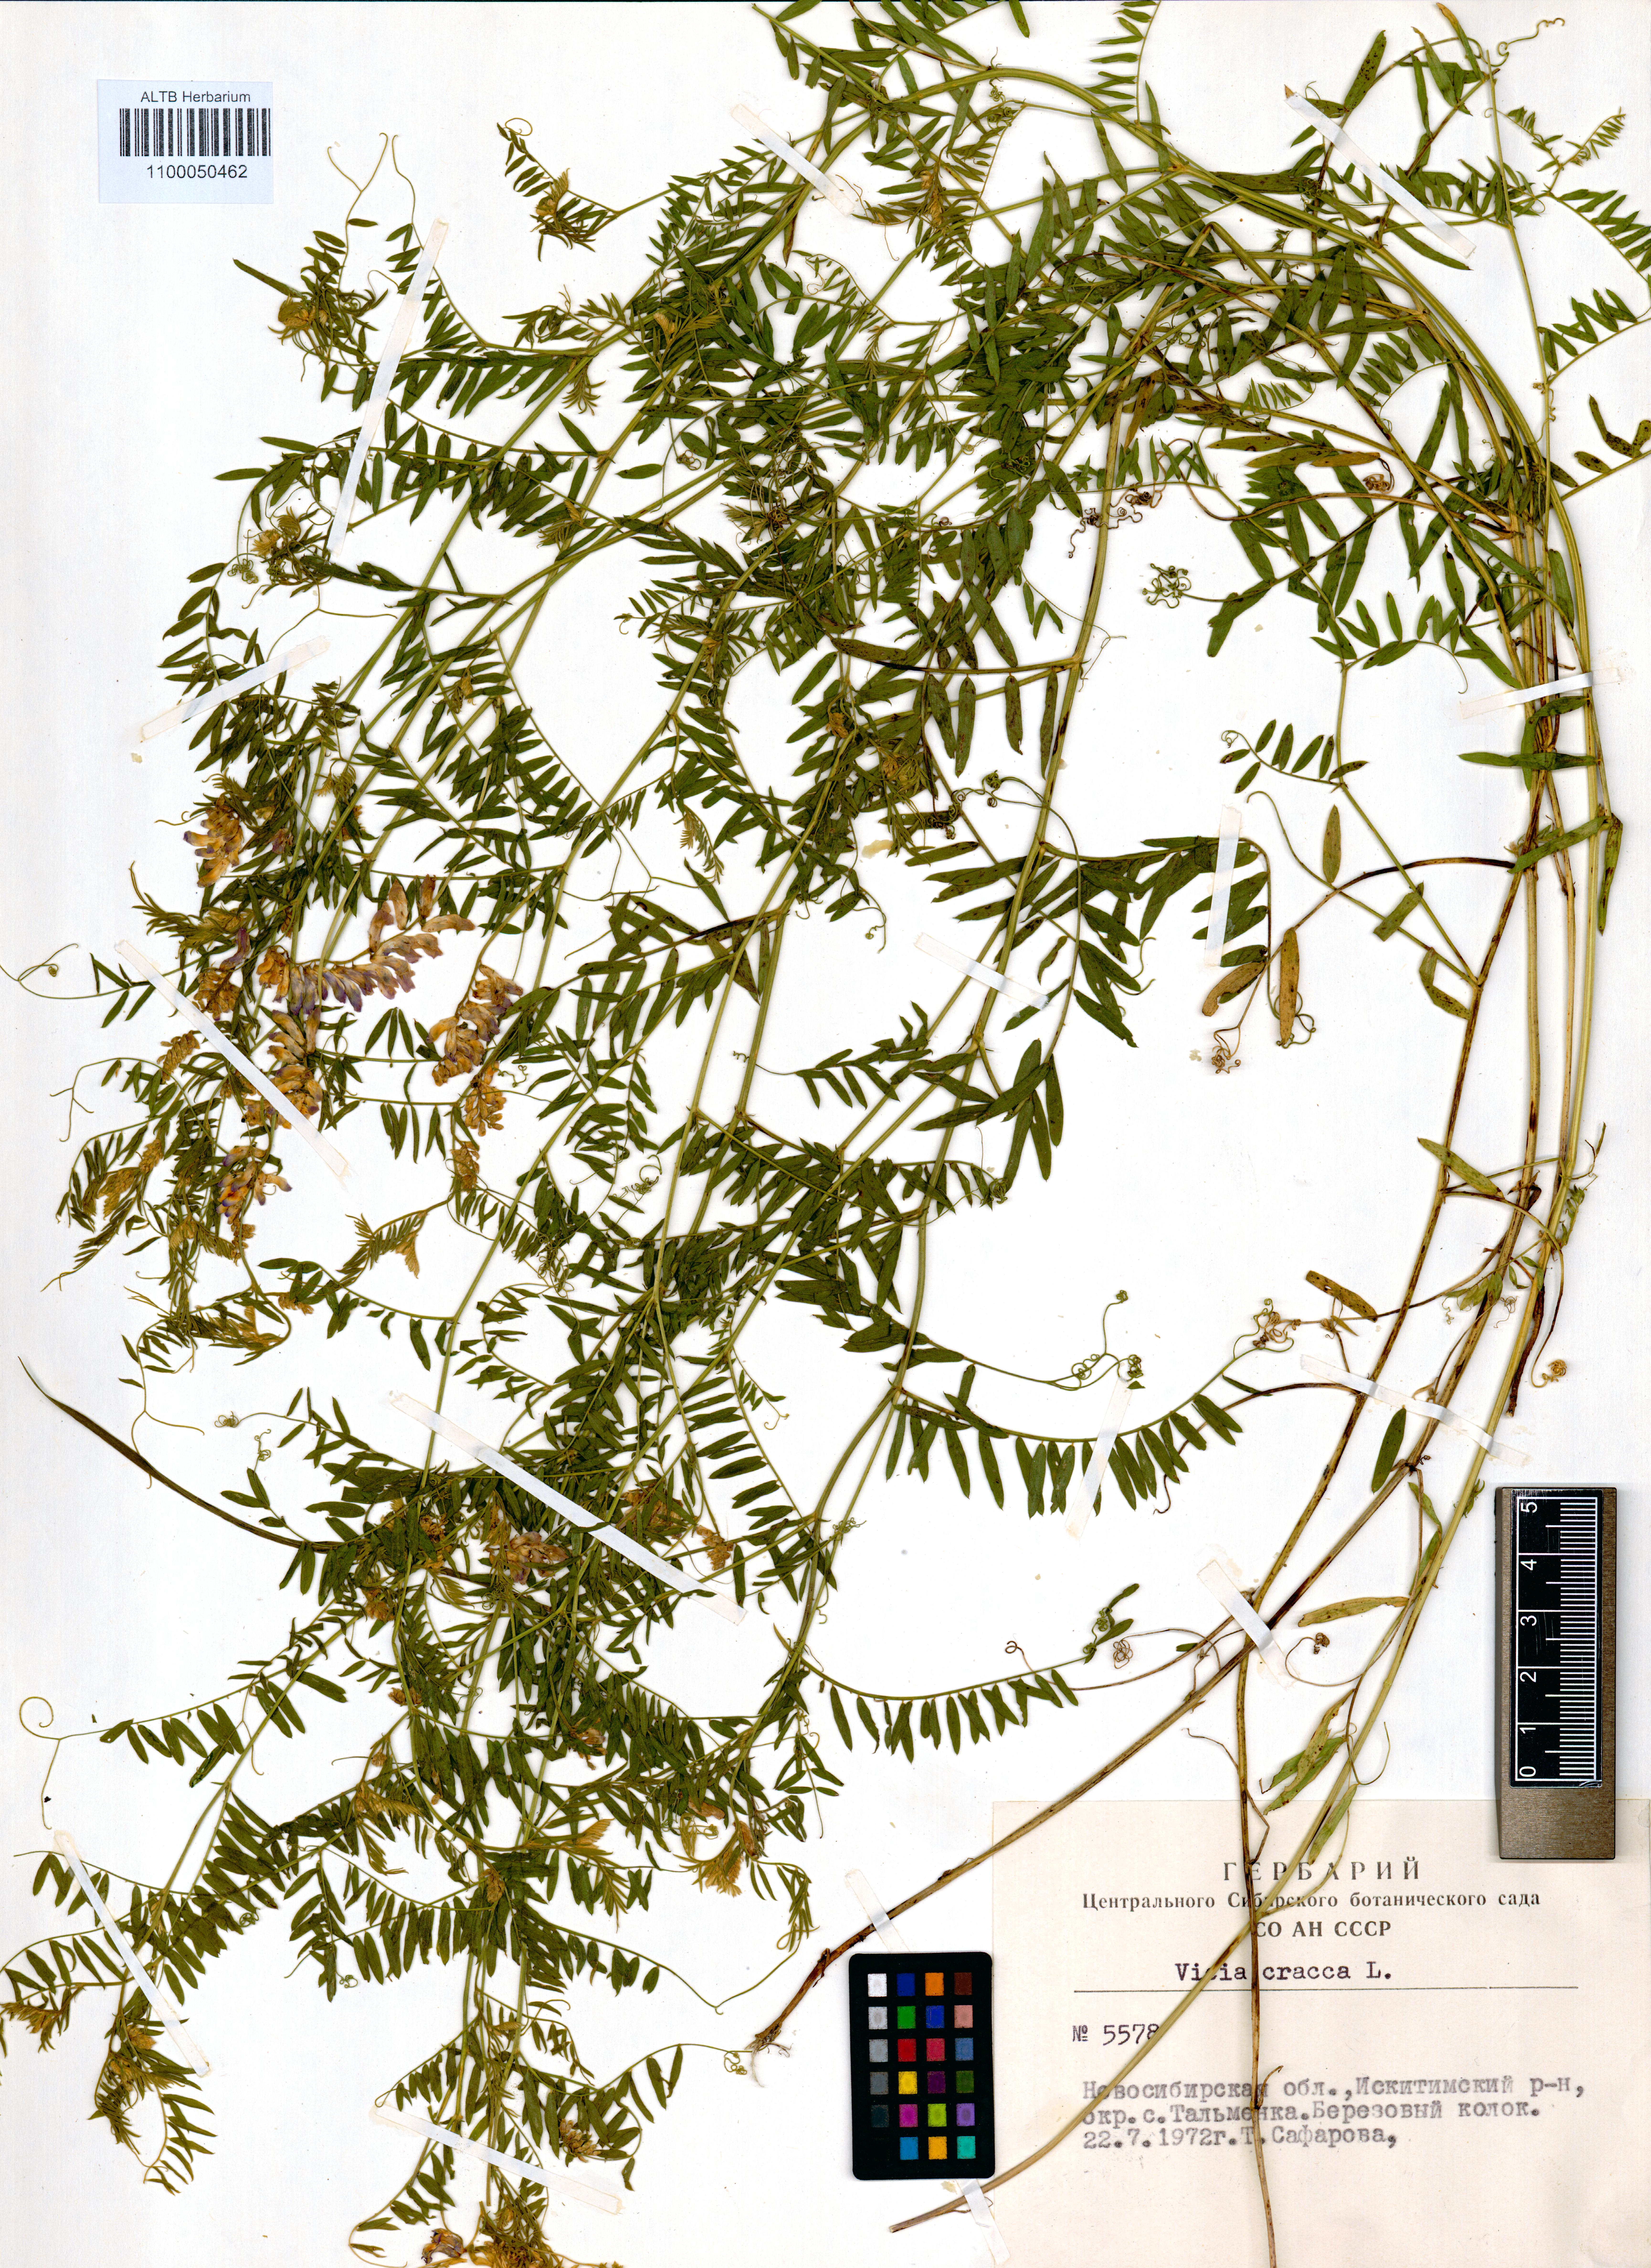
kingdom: Plantae
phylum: Tracheophyta
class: Magnoliopsida
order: Fabales
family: Fabaceae
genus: Vicia
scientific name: Vicia cracca
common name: Bird vetch
